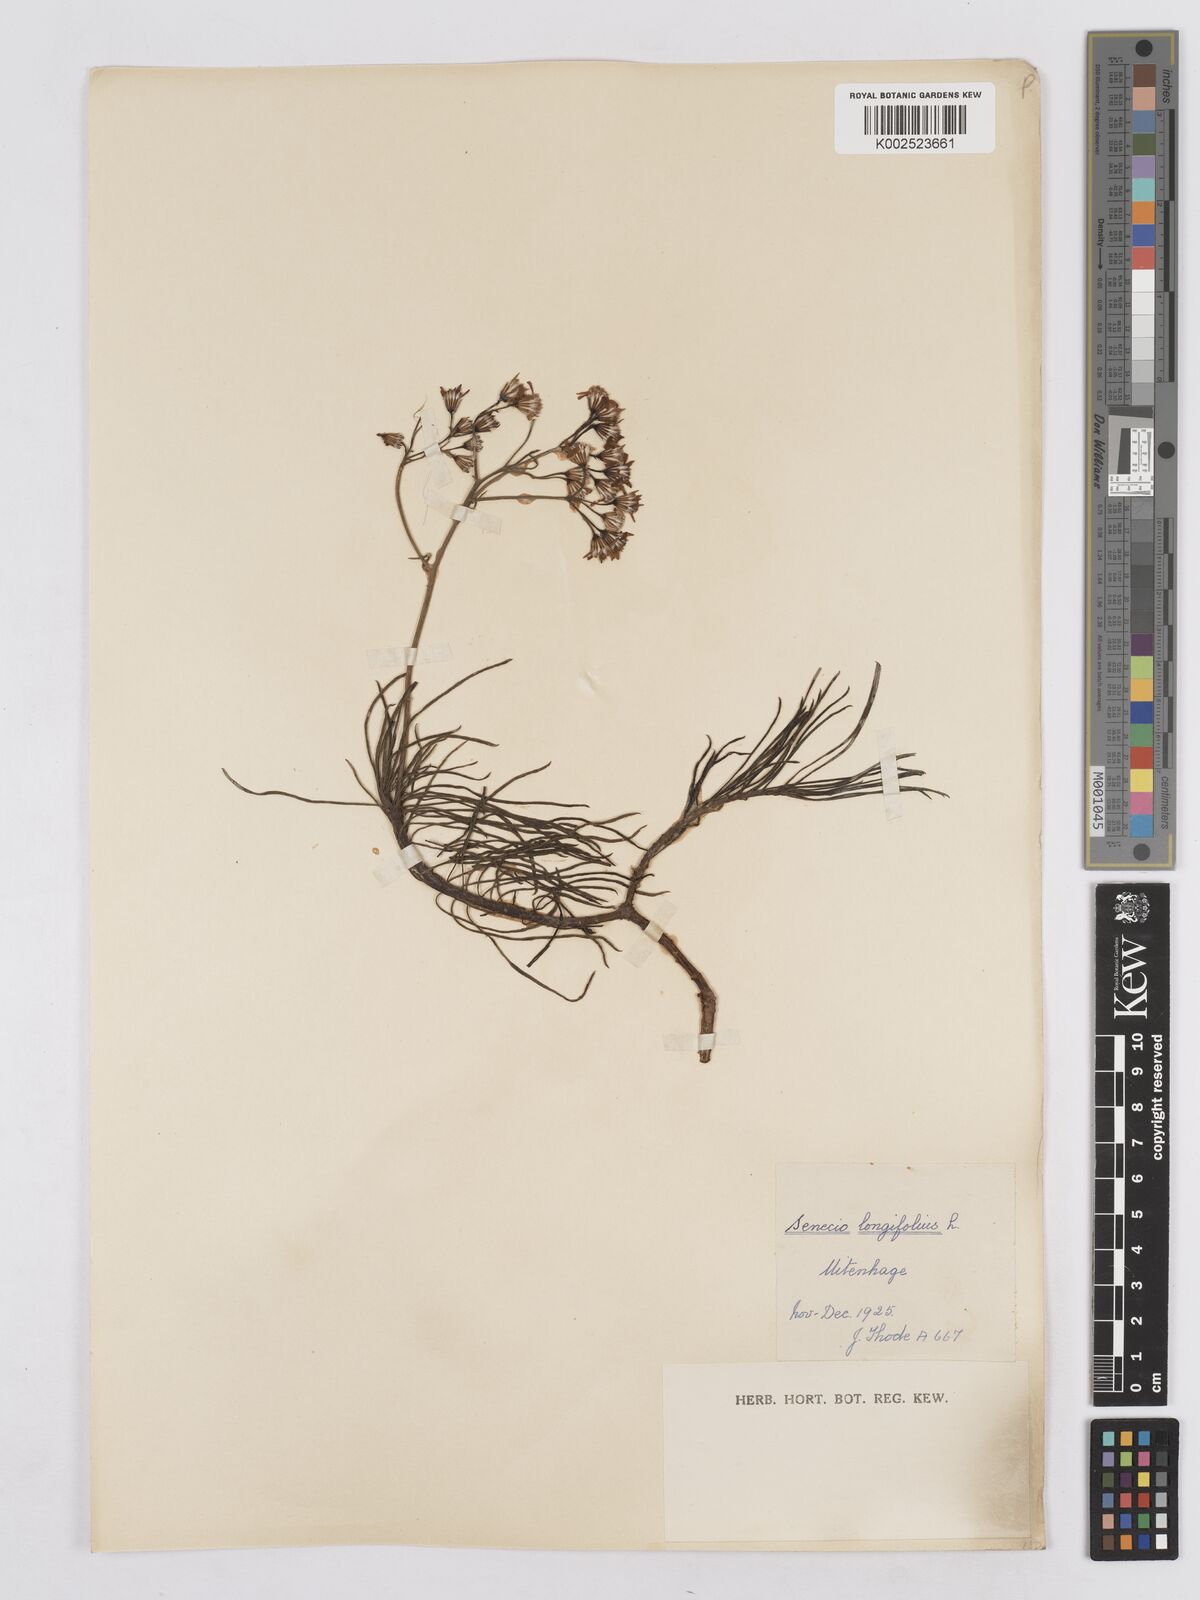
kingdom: Plantae
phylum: Tracheophyta
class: Magnoliopsida
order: Asterales
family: Asteraceae
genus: Senecio
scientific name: Senecio linifolius
